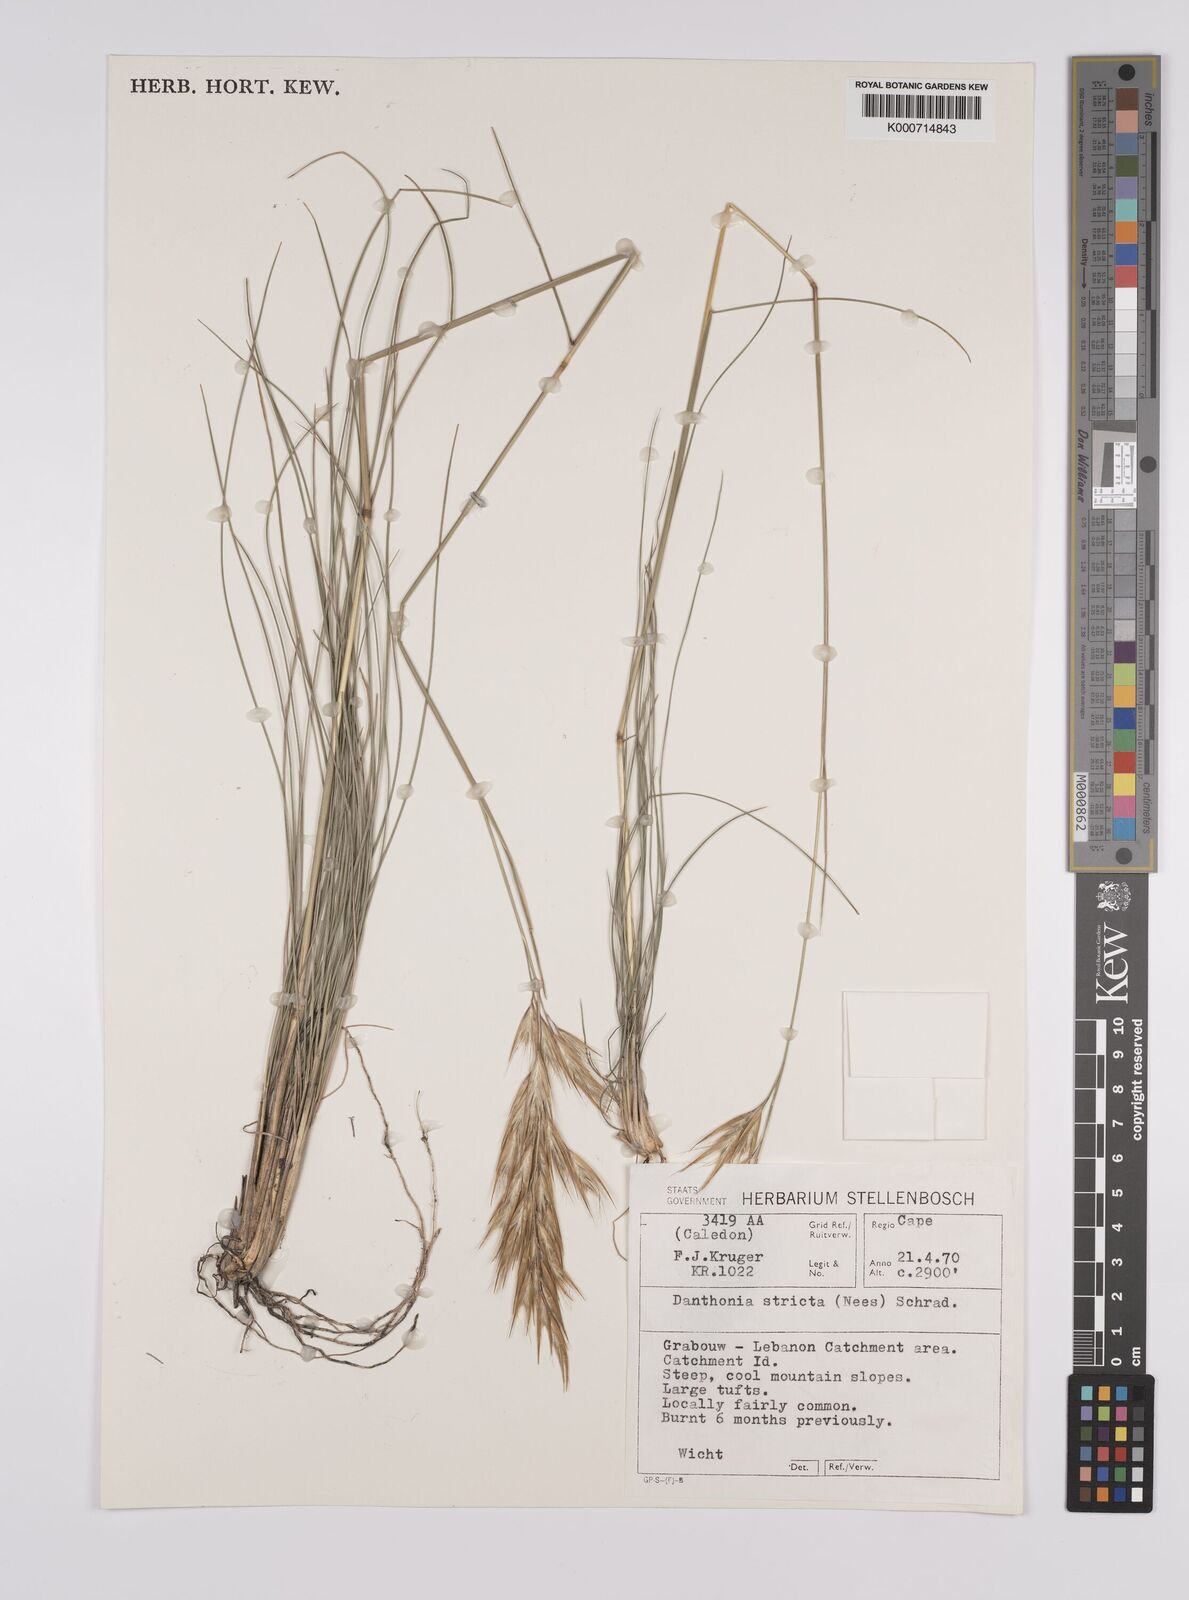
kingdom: Plantae
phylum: Tracheophyta
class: Liliopsida
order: Poales
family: Poaceae
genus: Rytidosperma
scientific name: Rytidosperma
